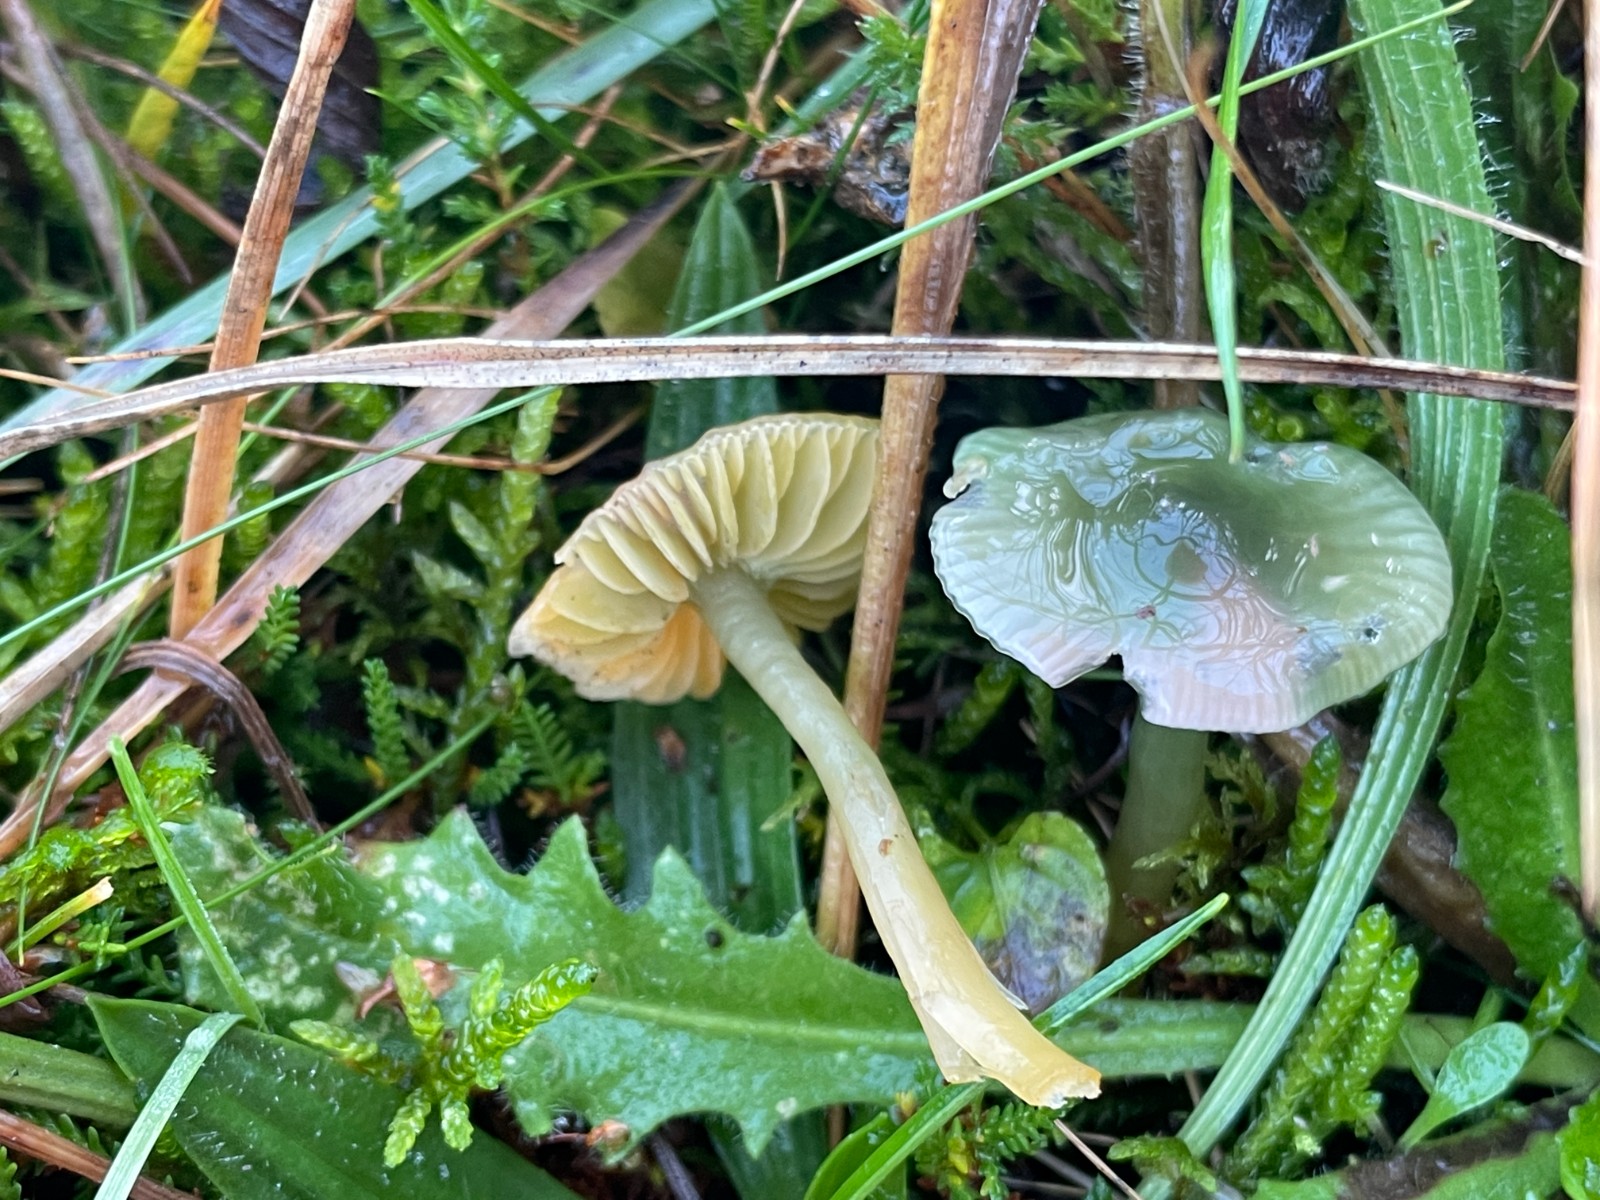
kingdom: Fungi
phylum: Basidiomycota
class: Agaricomycetes
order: Agaricales
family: Hygrophoraceae
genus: Gliophorus
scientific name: Gliophorus psittacinus
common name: papegøje-vokshat
